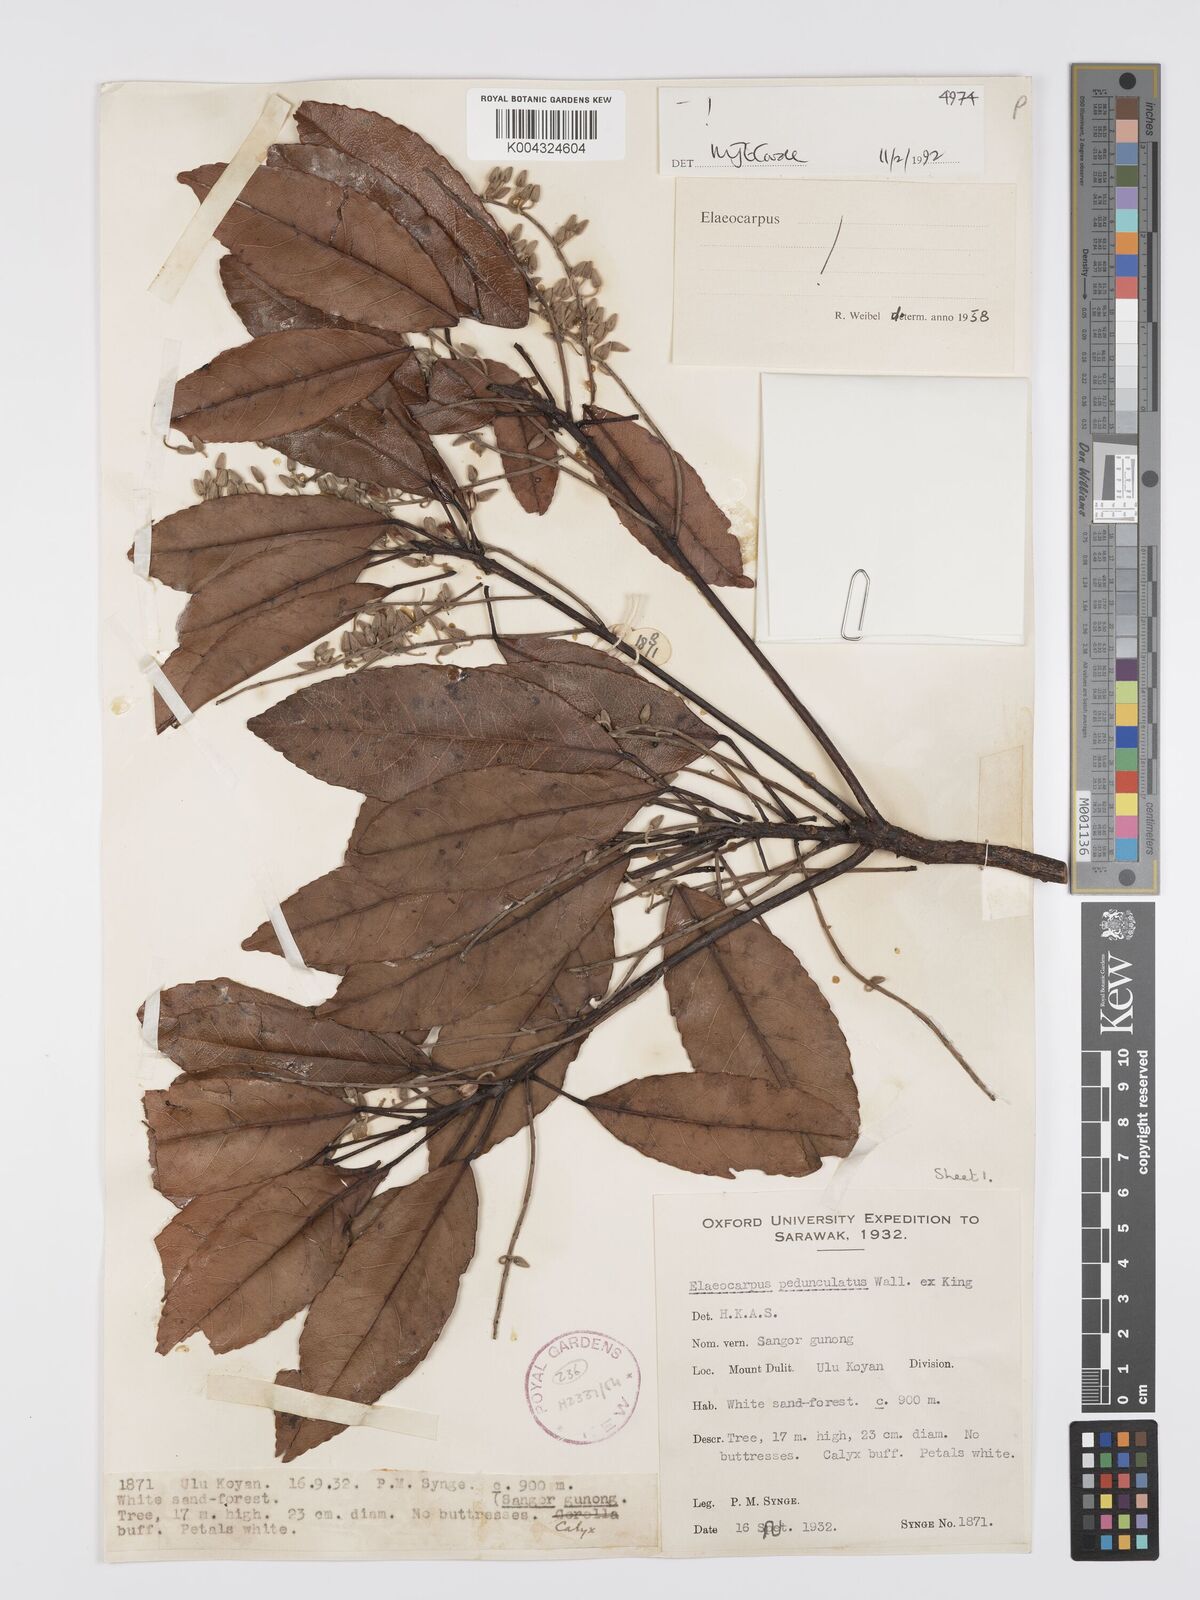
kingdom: Plantae
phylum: Tracheophyta
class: Magnoliopsida
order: Oxalidales
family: Elaeocarpaceae
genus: Elaeocarpus
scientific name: Elaeocarpus pedunculatus
